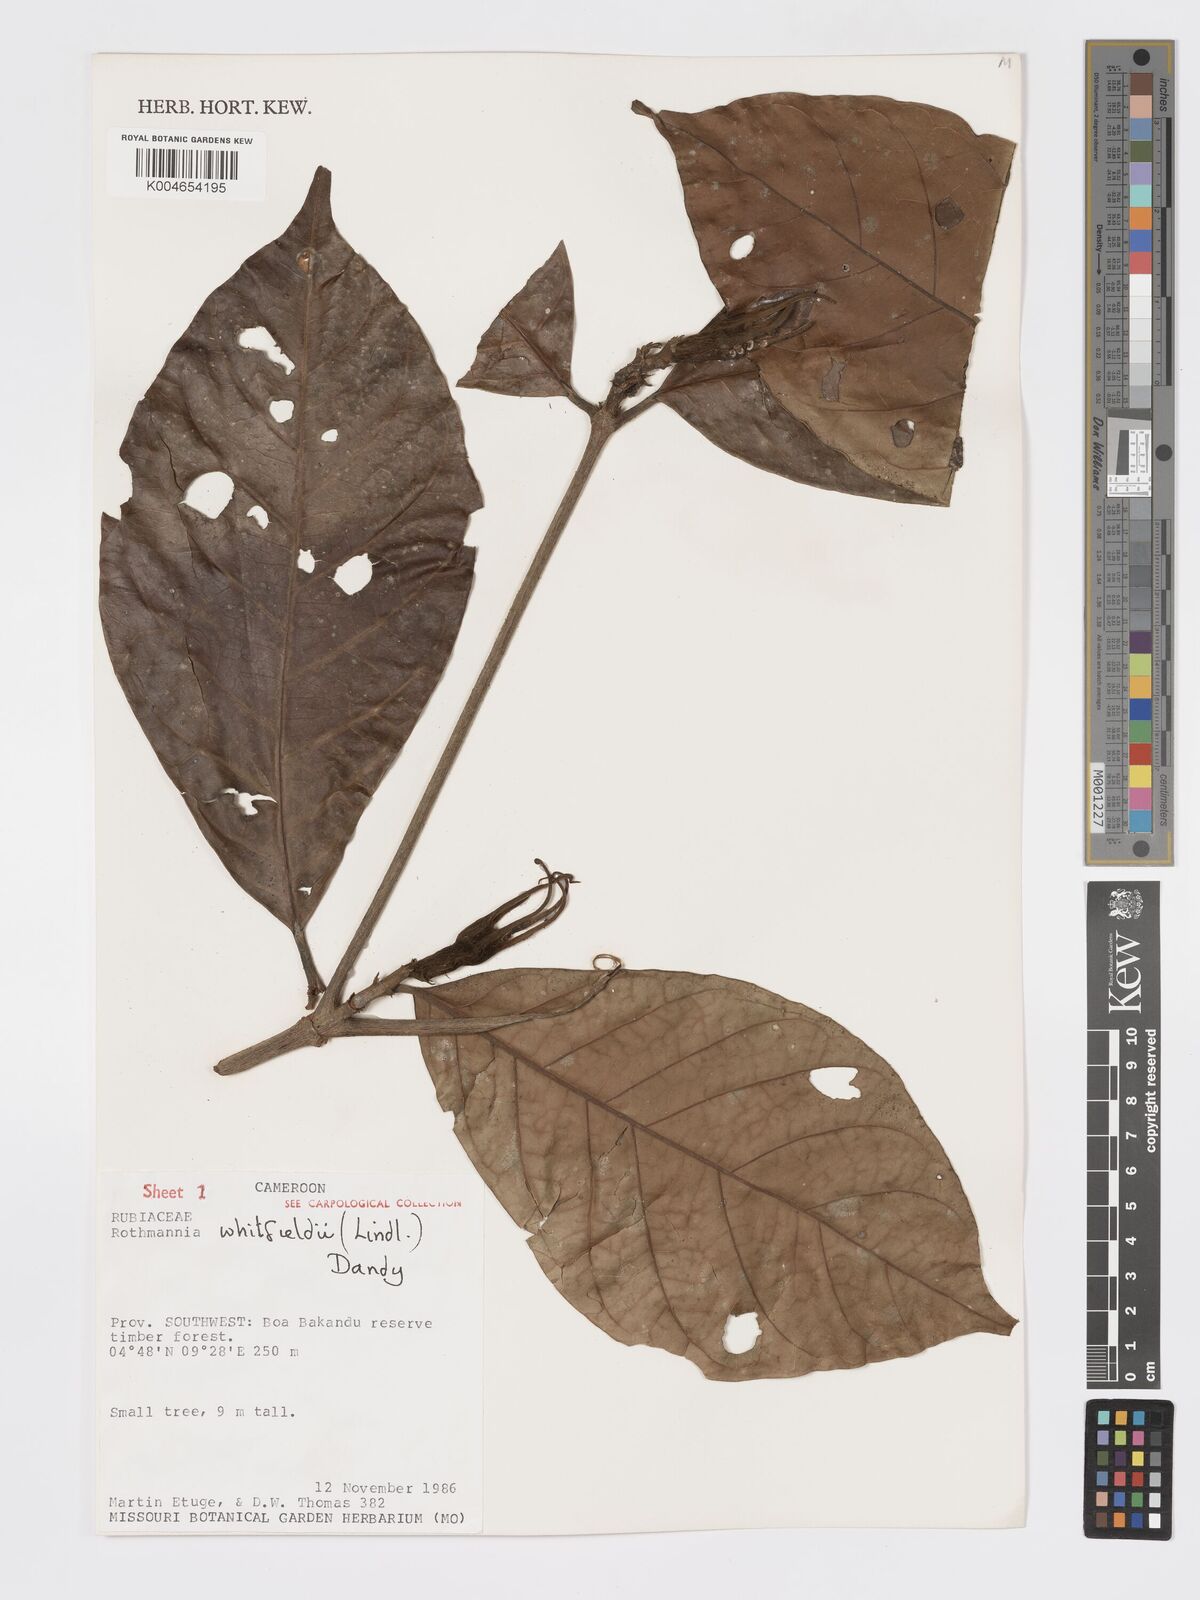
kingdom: Plantae
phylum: Tracheophyta
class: Magnoliopsida
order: Gentianales
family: Rubiaceae
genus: Rothmannia
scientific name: Rothmannia whitfieldii
